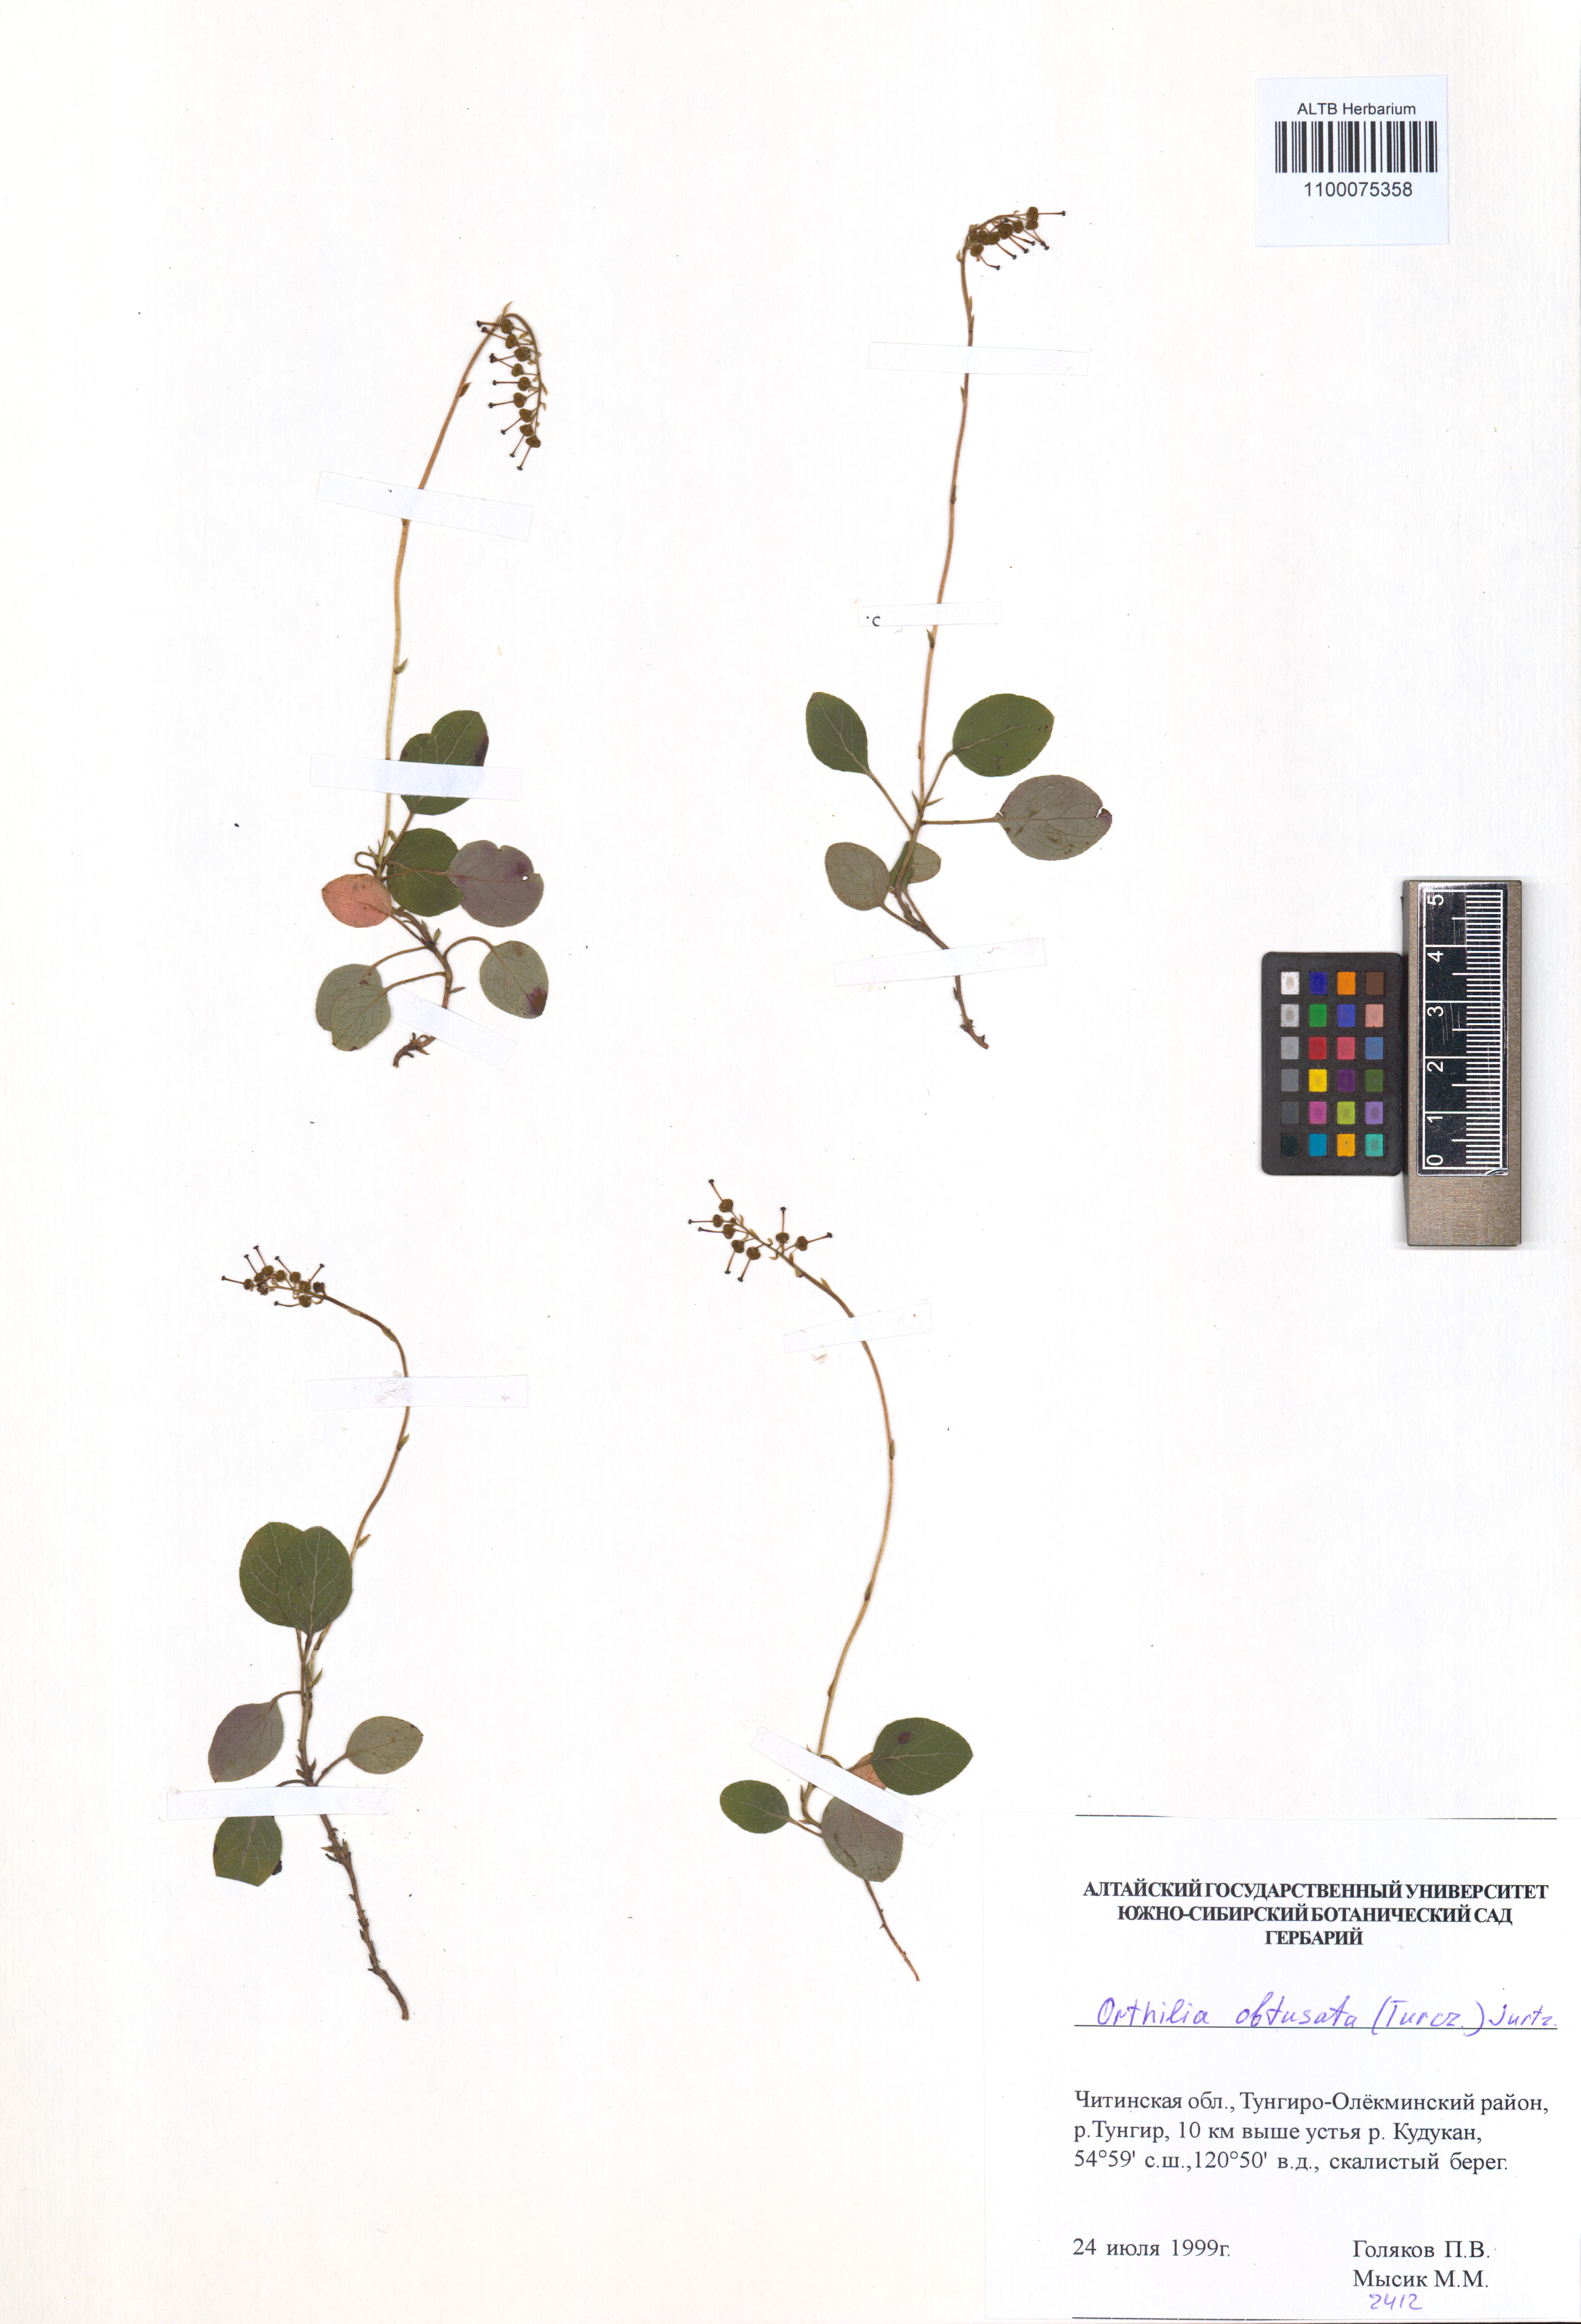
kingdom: Plantae
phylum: Tracheophyta
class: Magnoliopsida
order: Ericales
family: Ericaceae
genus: Orthilia
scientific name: Orthilia secunda
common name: One-sided orthilia
